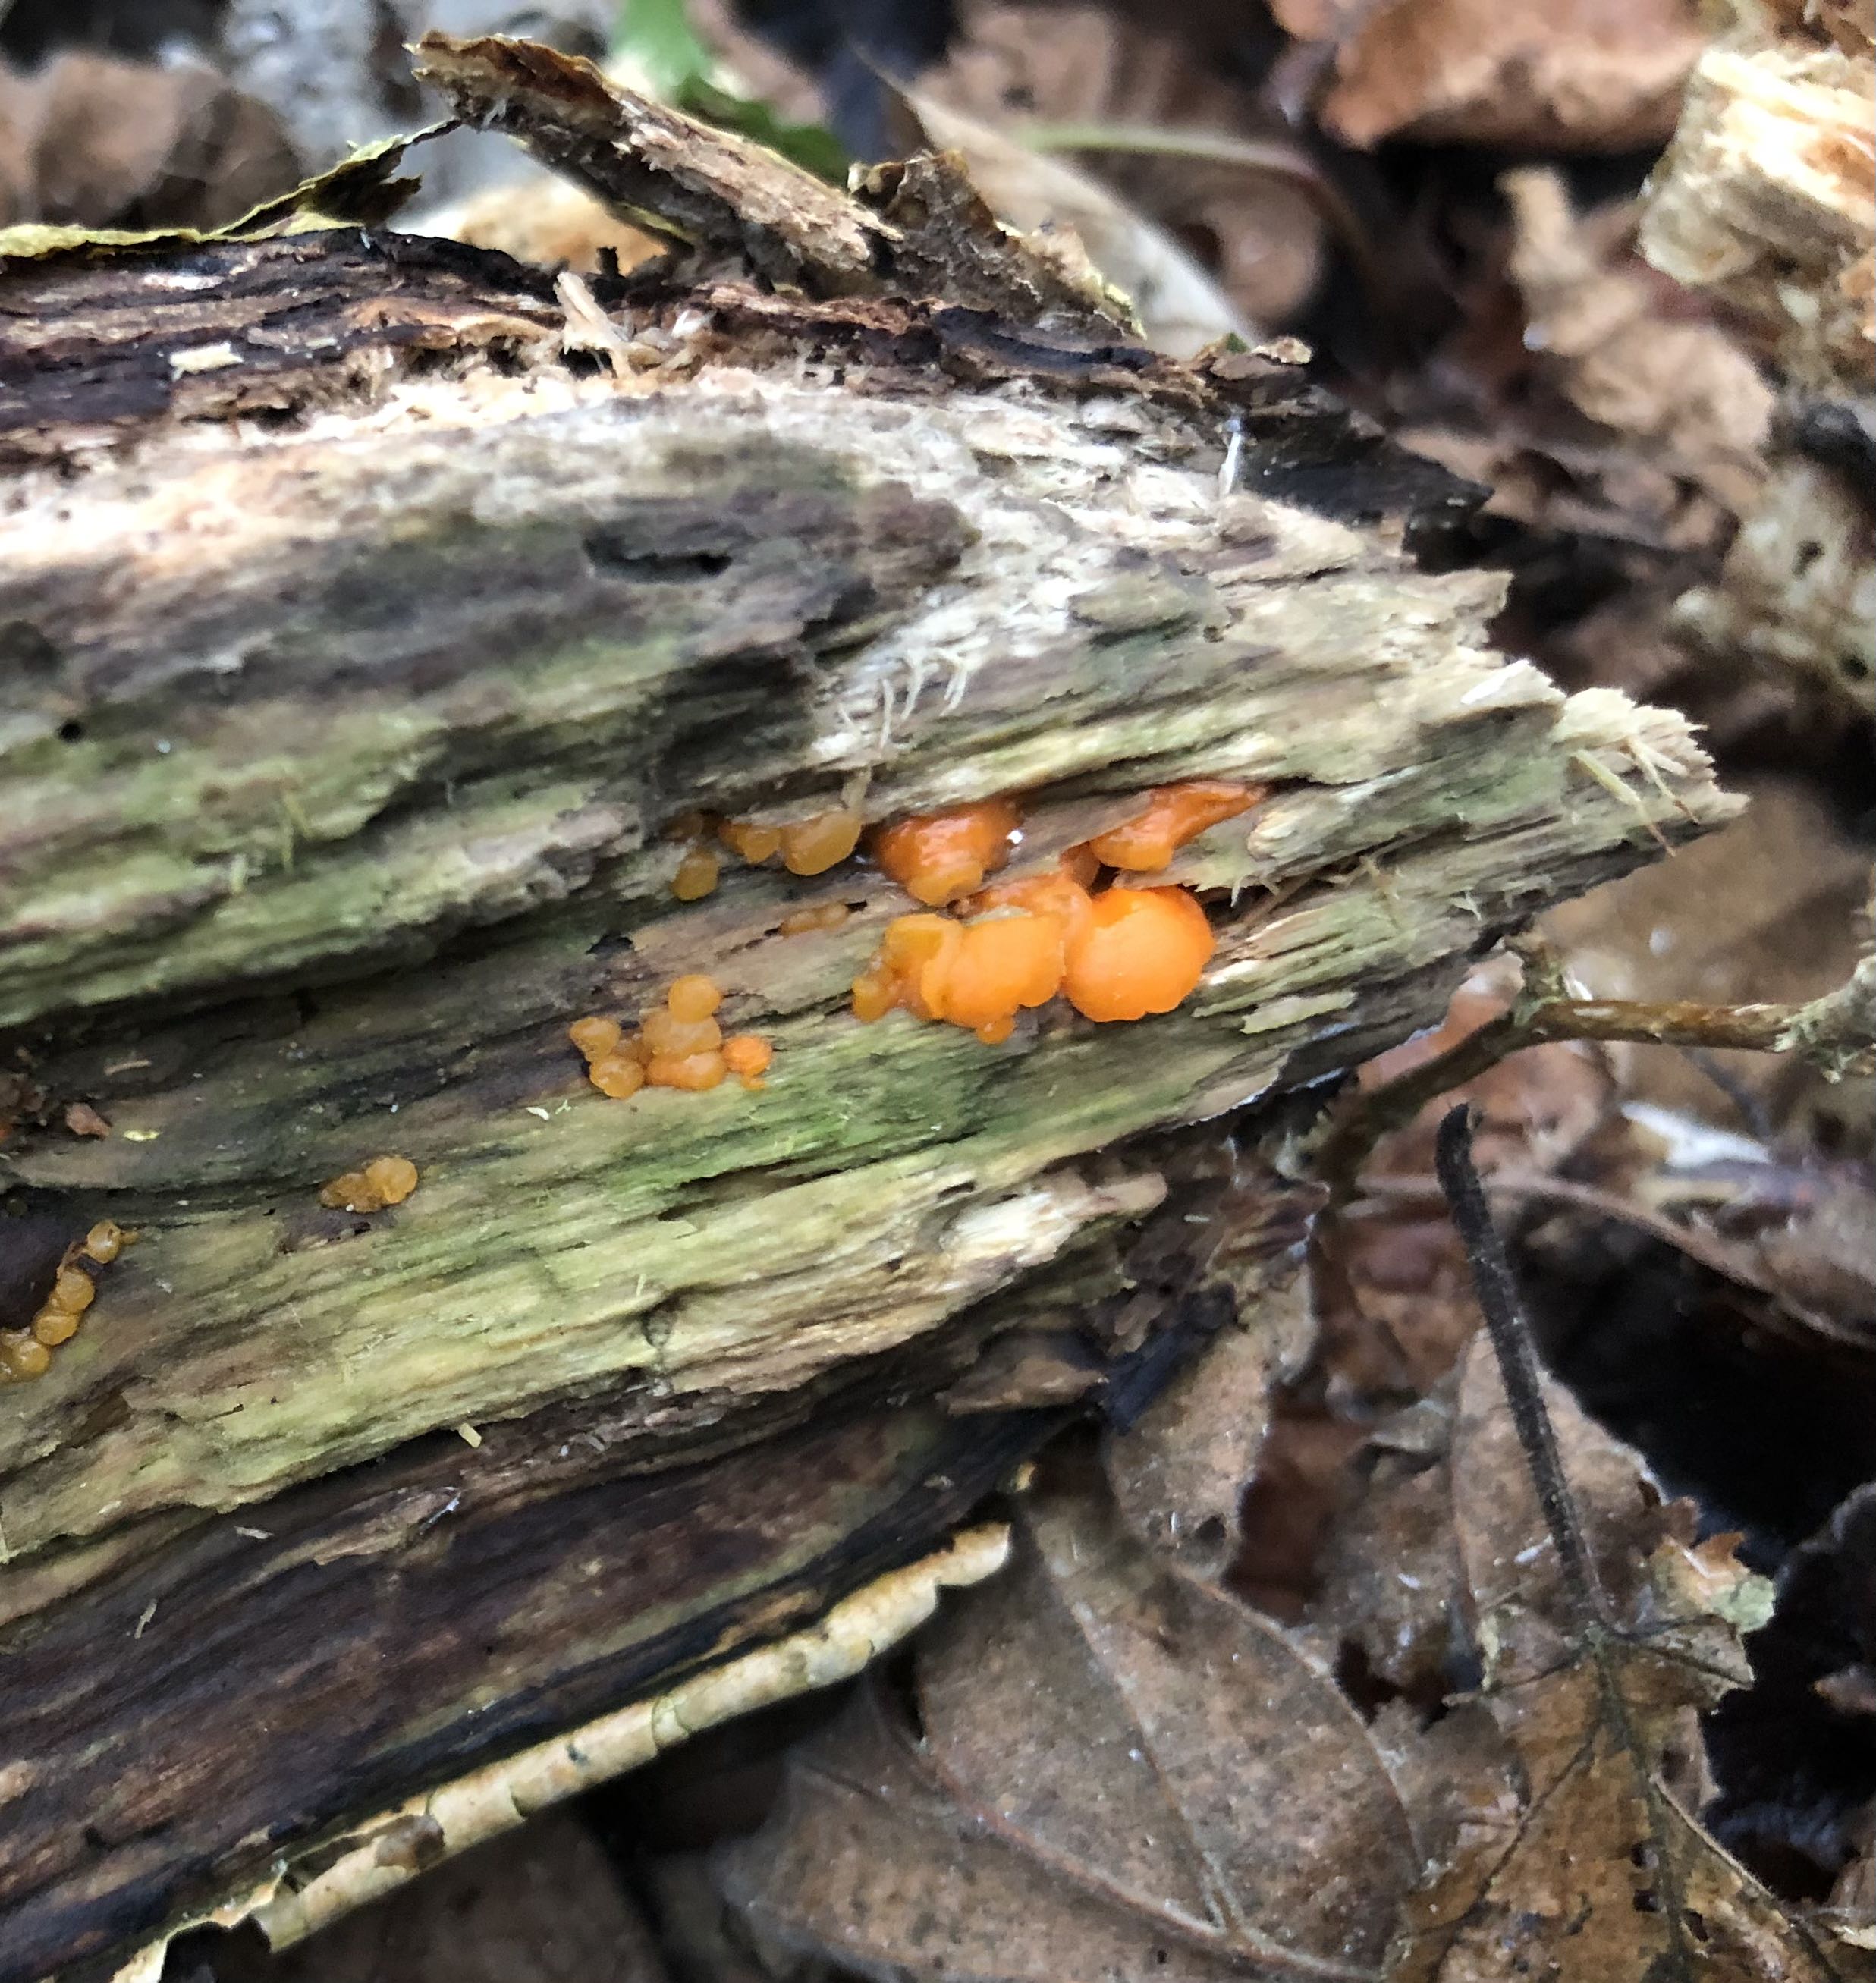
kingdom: Fungi
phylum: Basidiomycota
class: Dacrymycetes
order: Dacrymycetales
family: Dacrymycetaceae
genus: Dacrymyces
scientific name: Dacrymyces stillatus
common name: almindelig tåresvamp
